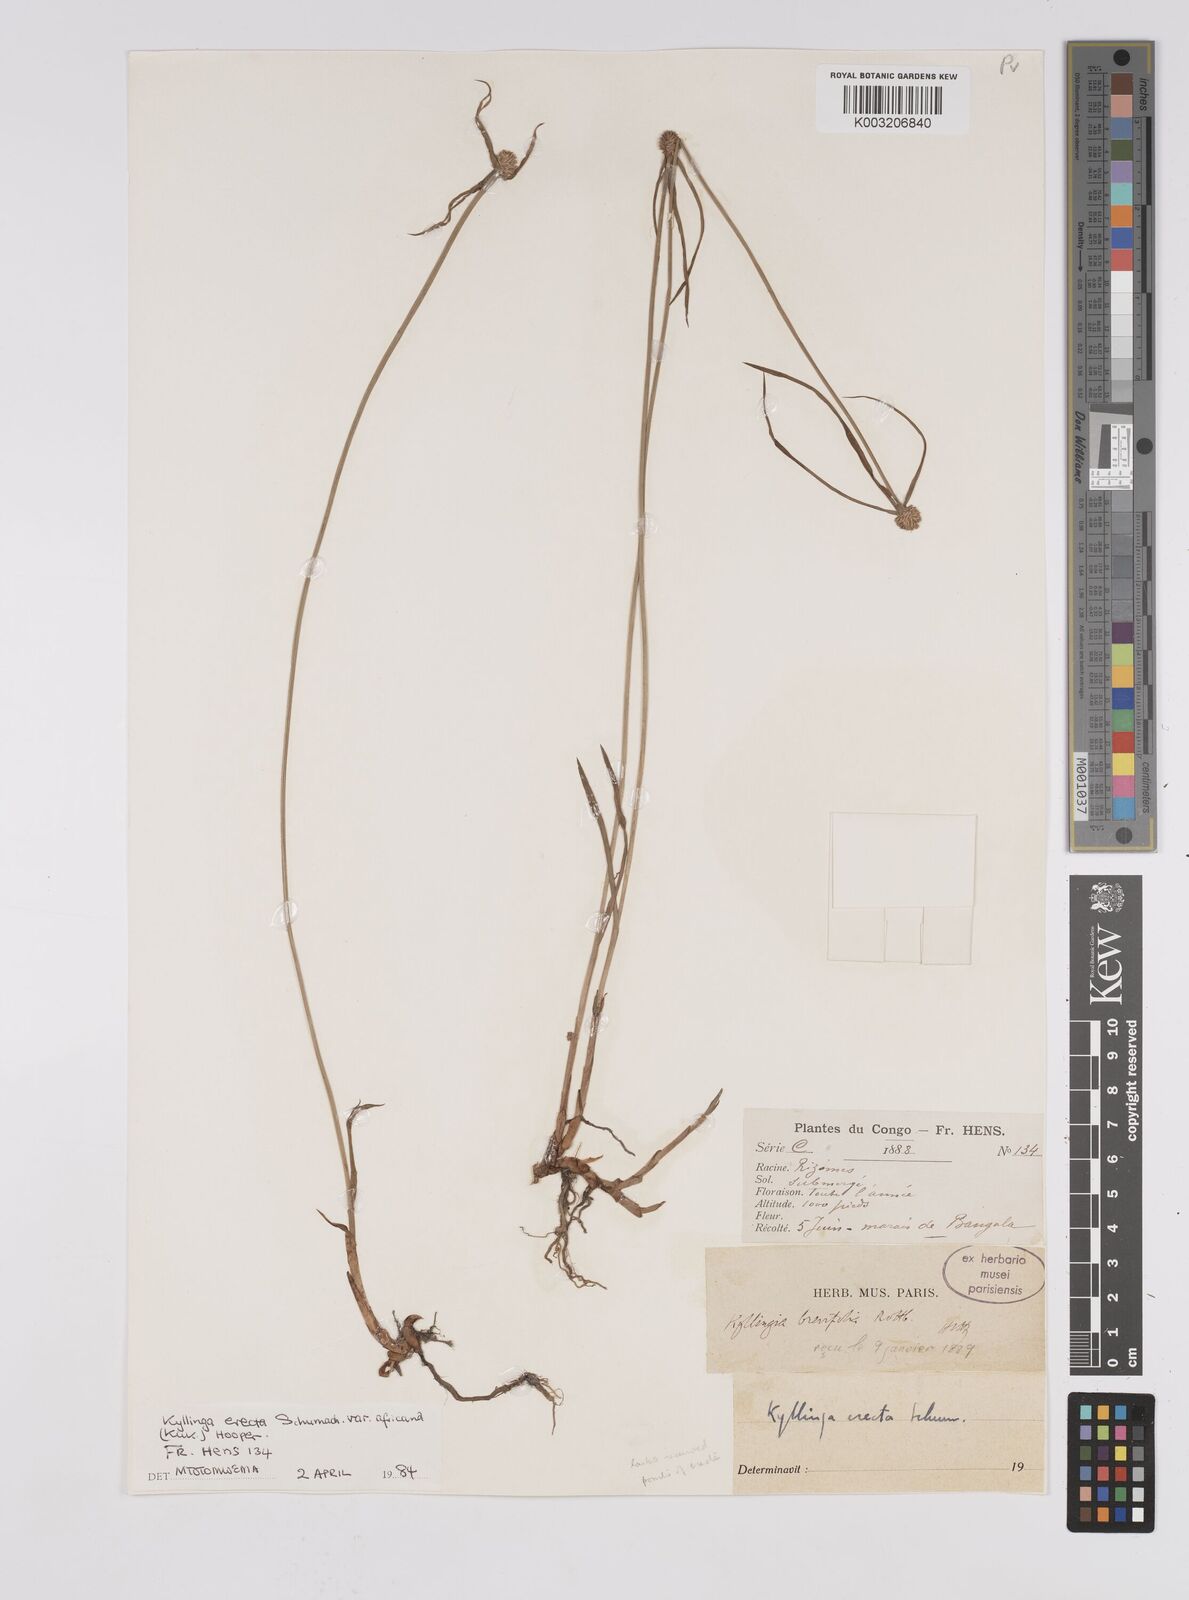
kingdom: Plantae
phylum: Tracheophyta
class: Liliopsida
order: Poales
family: Cyperaceae
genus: Cyperus
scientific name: Cyperus erectus
